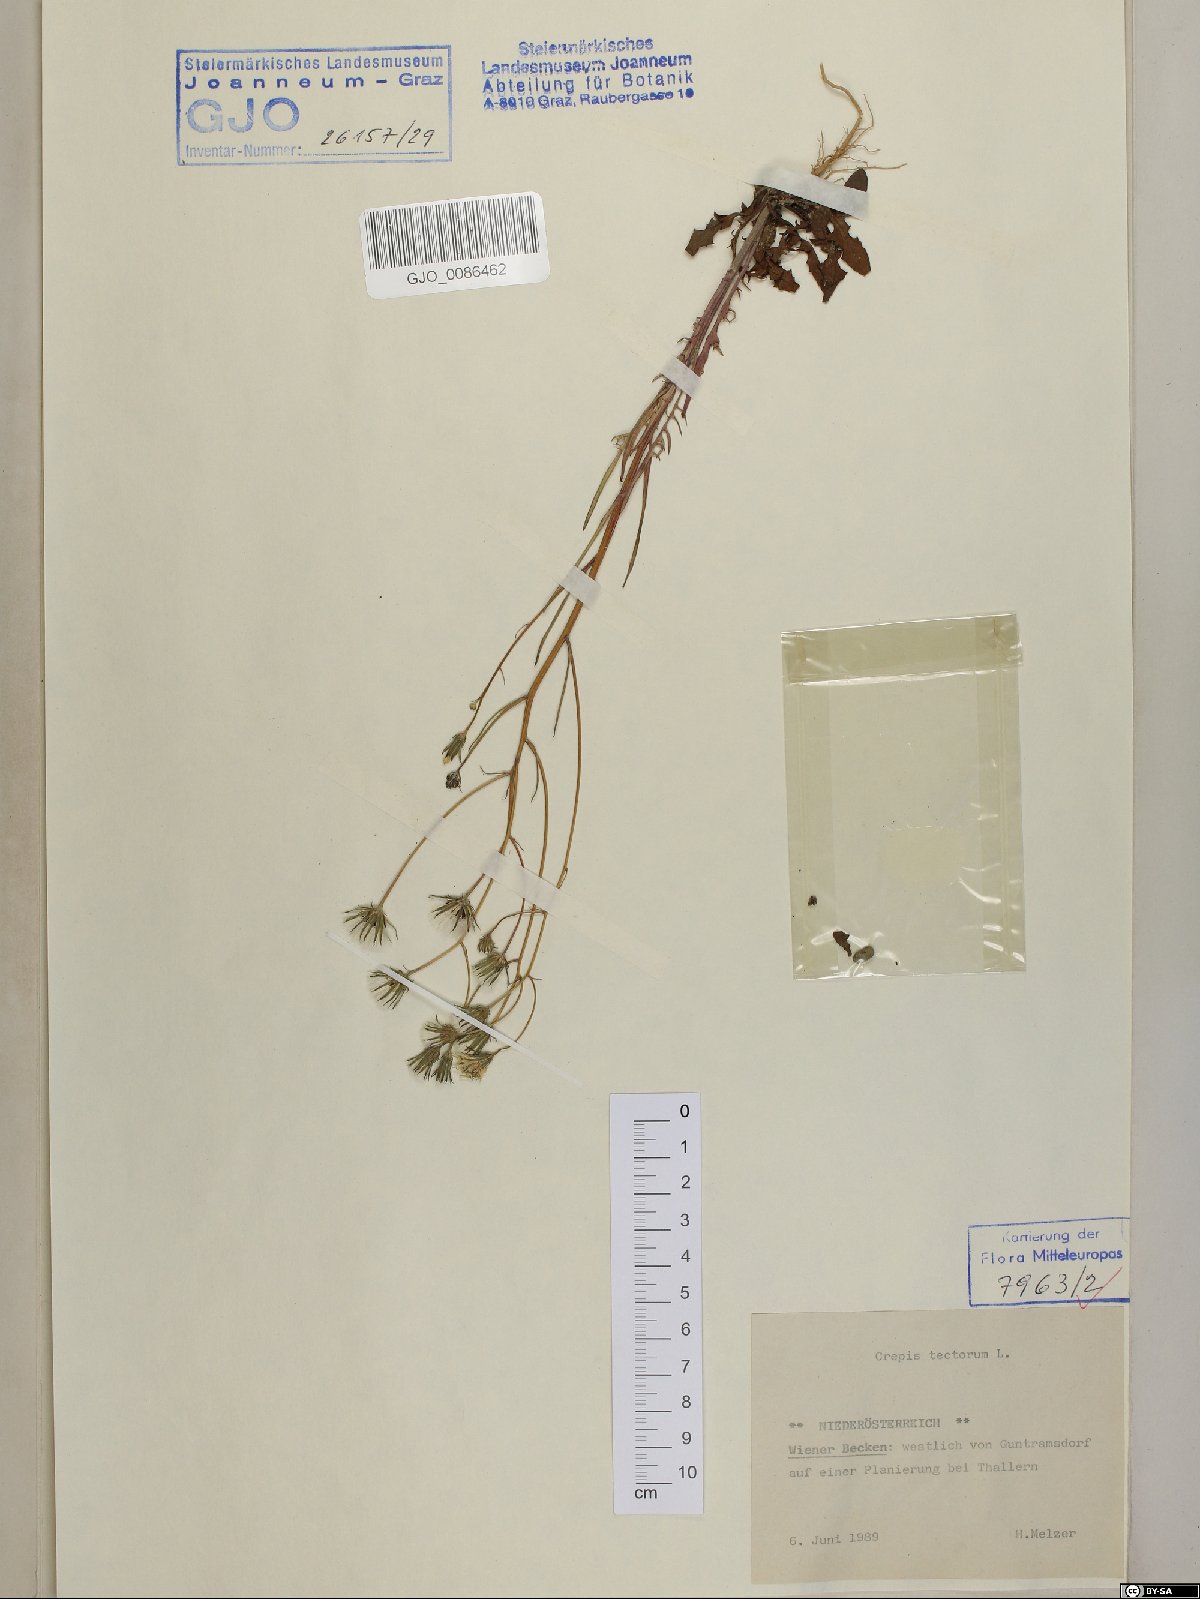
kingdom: Plantae
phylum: Tracheophyta
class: Magnoliopsida
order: Asterales
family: Asteraceae
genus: Crepis
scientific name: Crepis tectorum
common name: Narrow-leaved hawk's-beard
